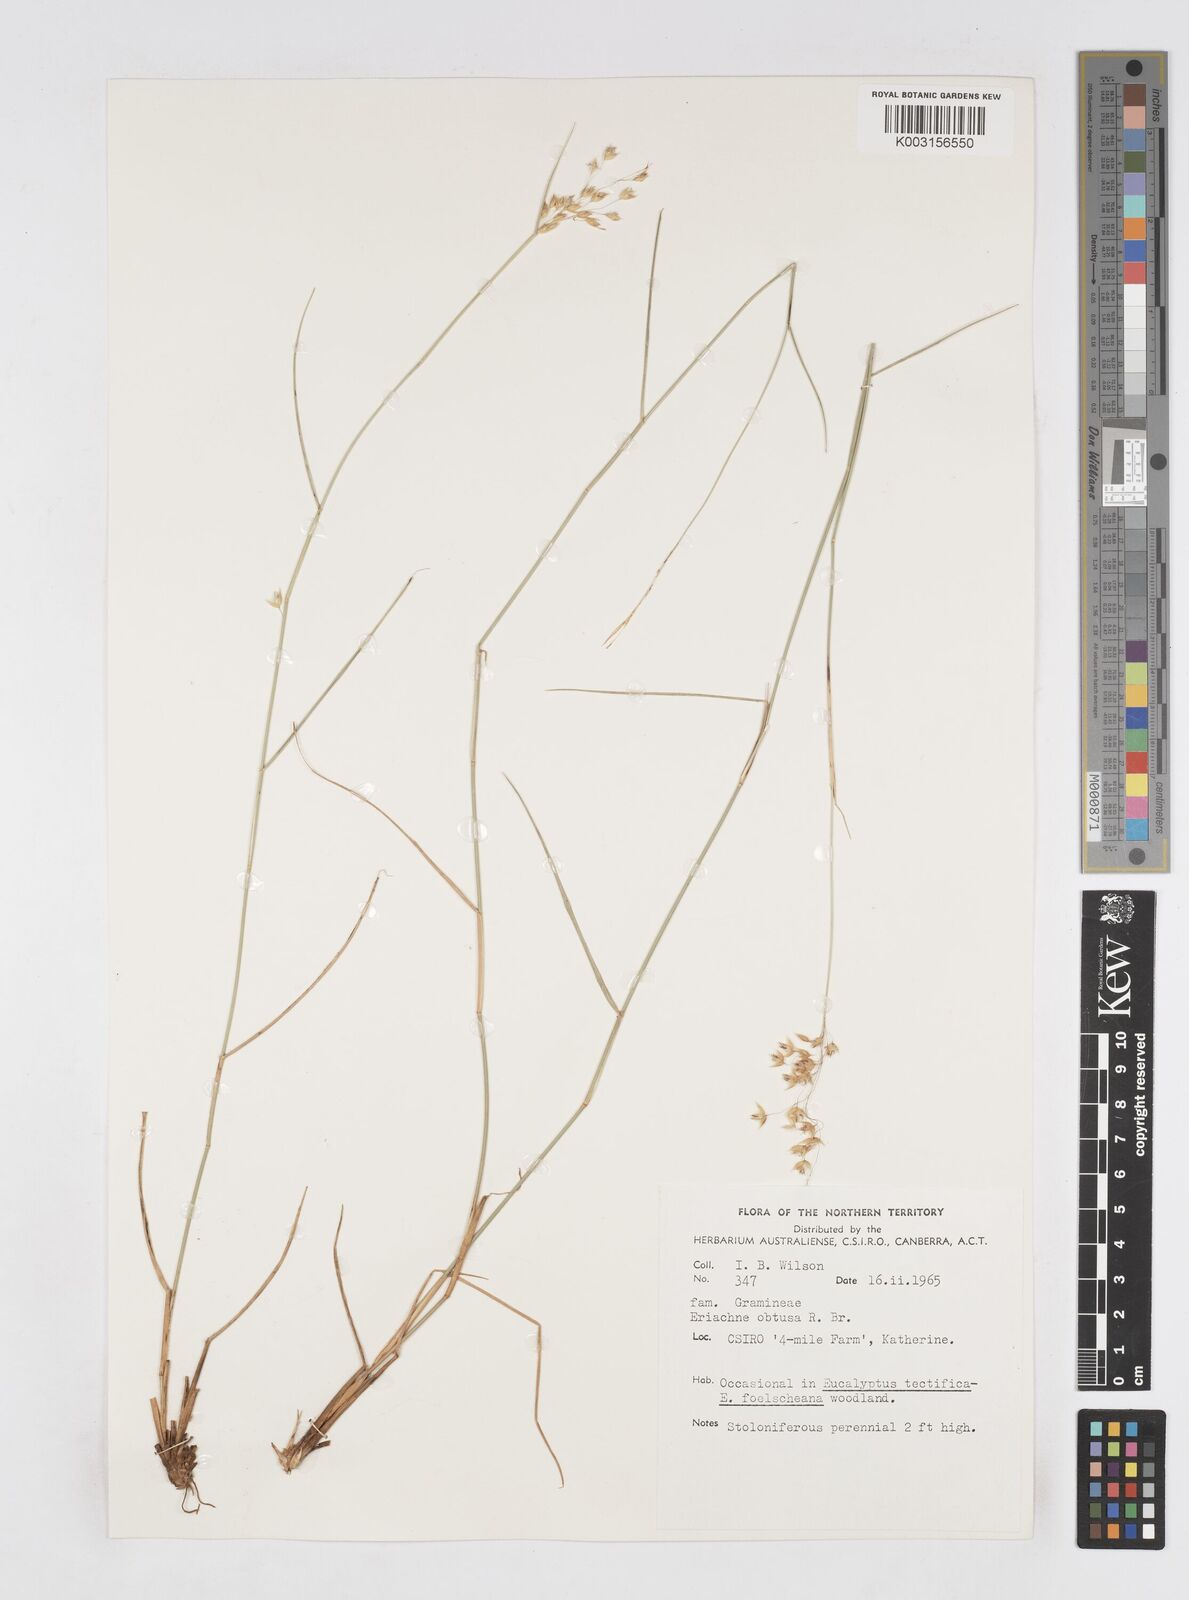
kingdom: Plantae
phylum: Tracheophyta
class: Liliopsida
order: Poales
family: Poaceae
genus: Eriachne
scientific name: Eriachne obtusa
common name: Northern wanderrie grass
